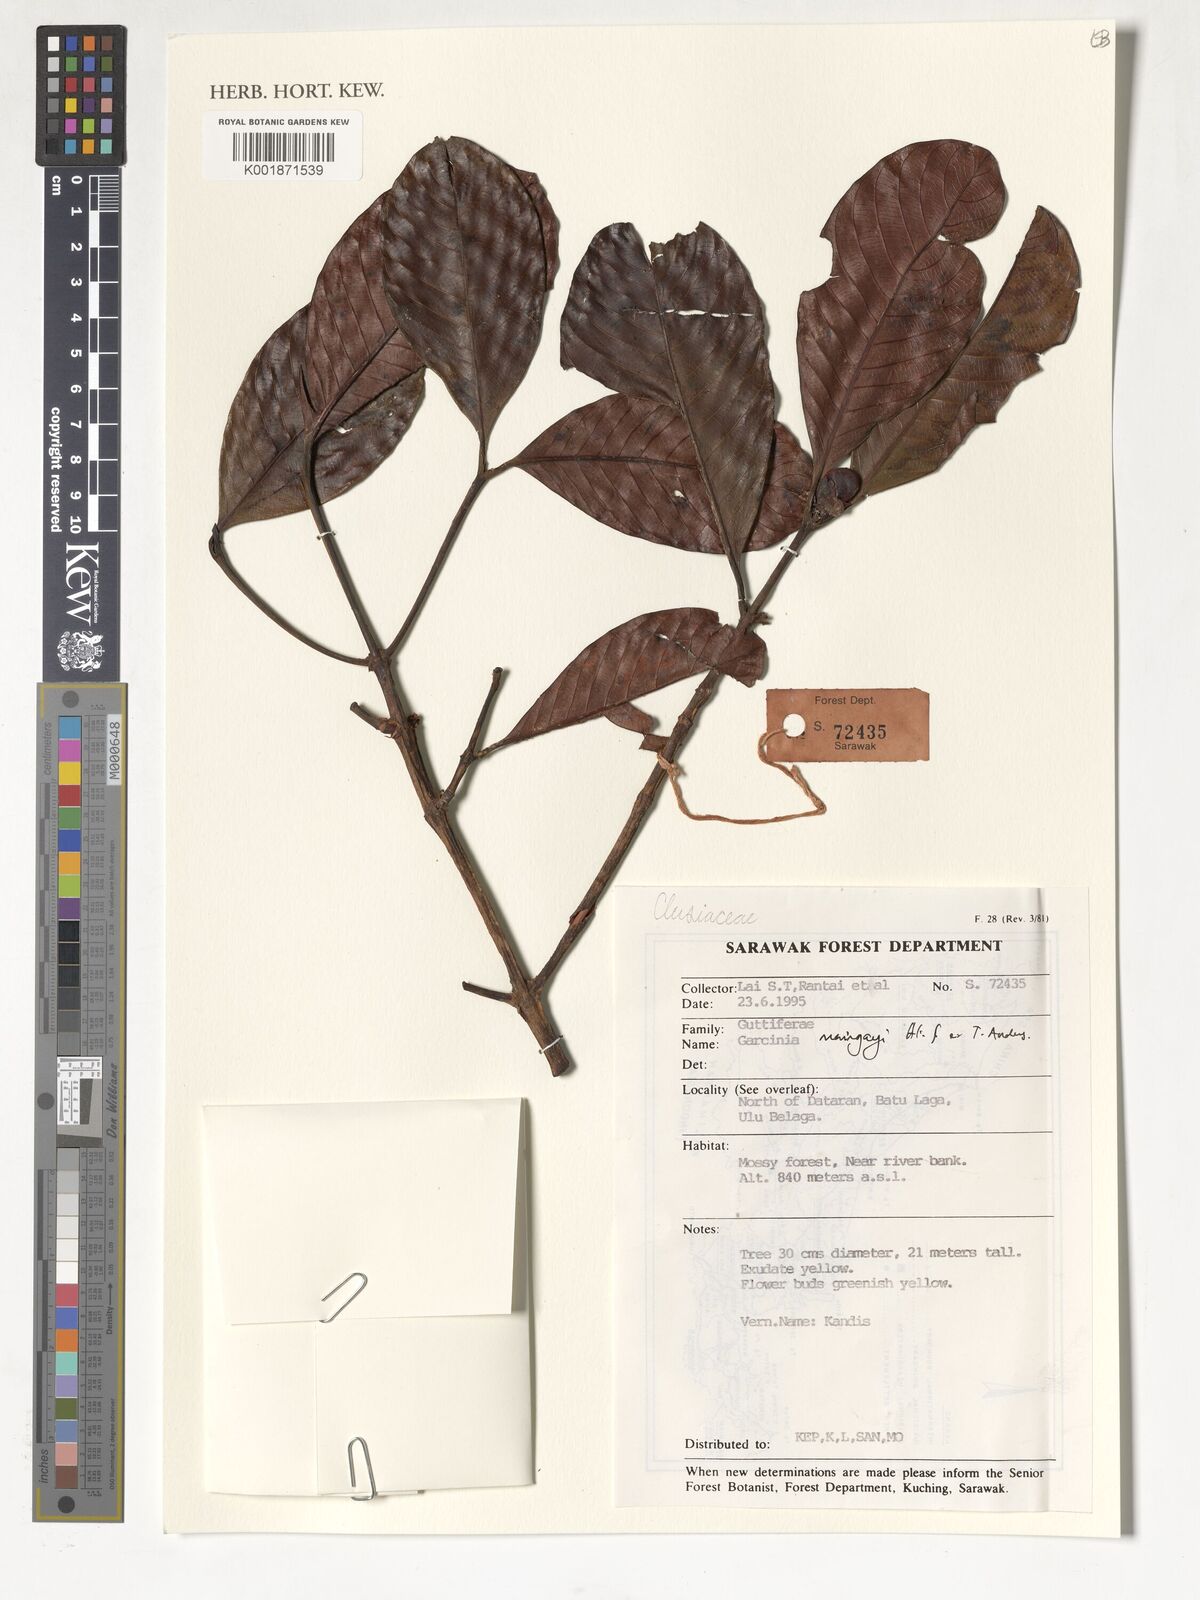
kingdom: Plantae
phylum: Tracheophyta
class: Magnoliopsida
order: Malpighiales
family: Clusiaceae
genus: Garcinia
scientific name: Garcinia maingayi
